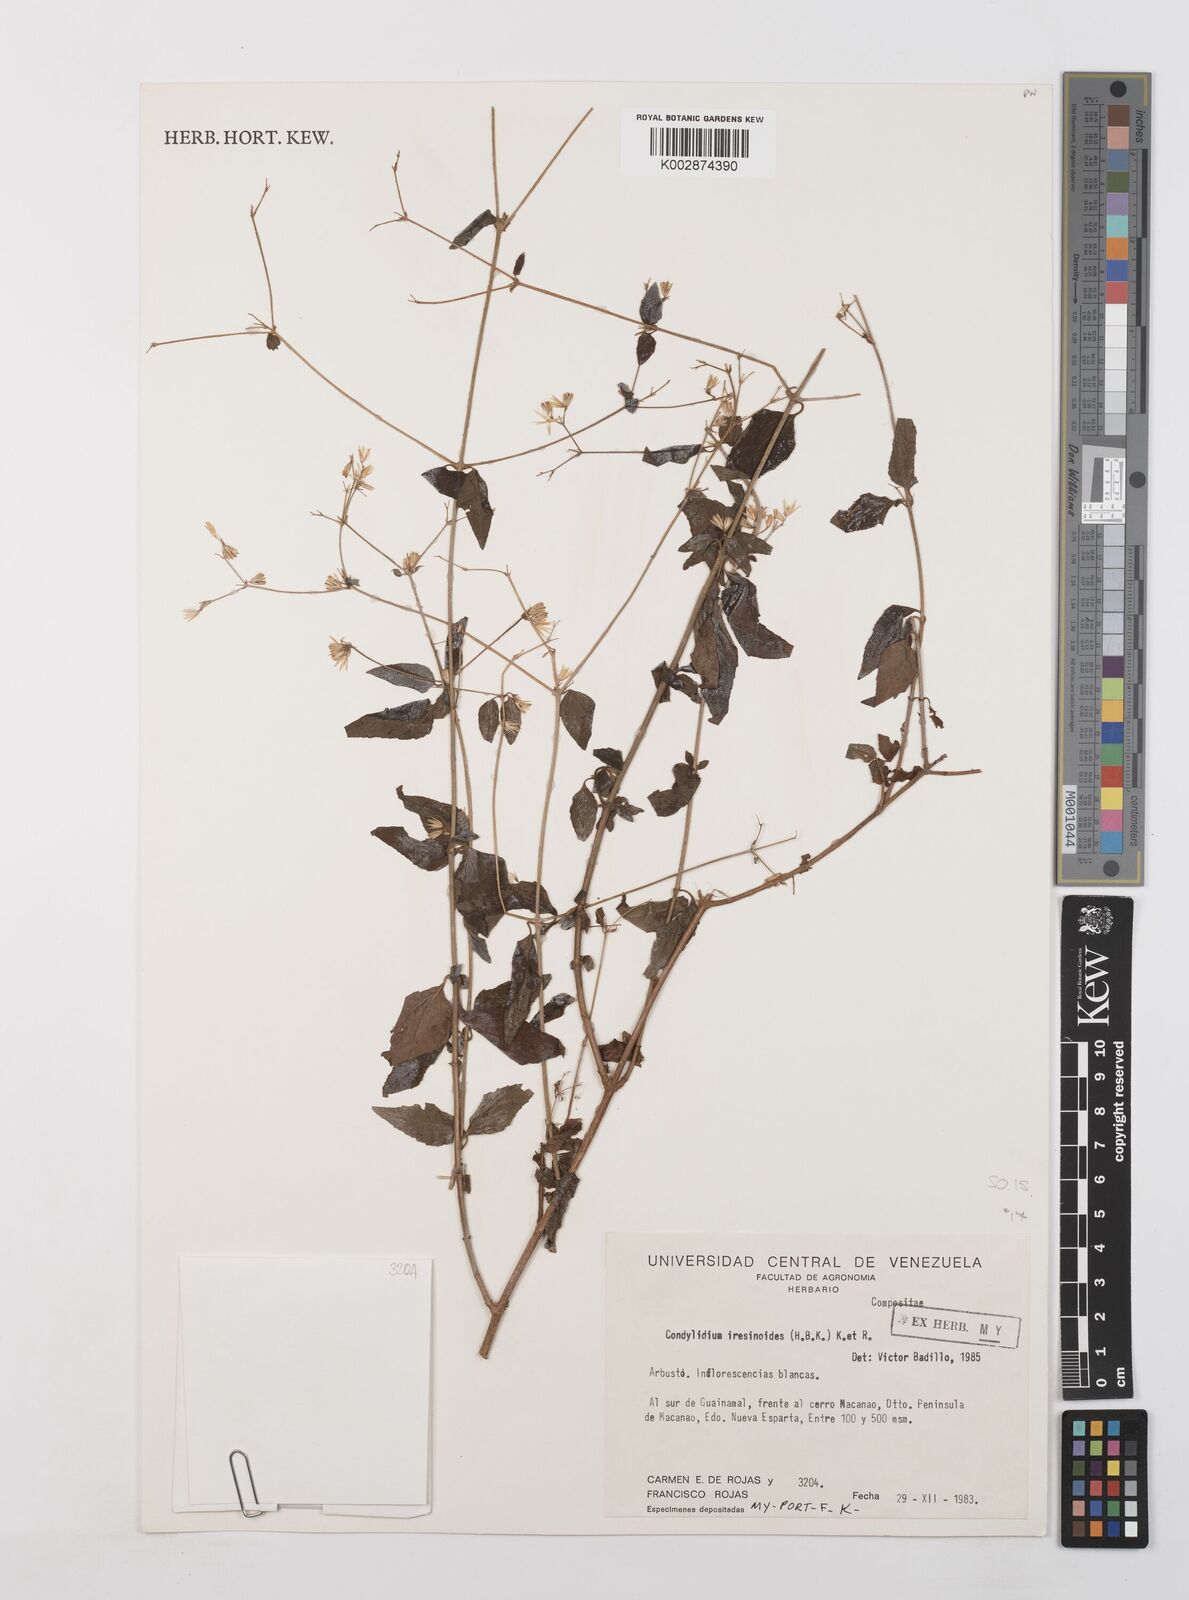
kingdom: Plantae
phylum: Tracheophyta
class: Magnoliopsida
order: Asterales
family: Asteraceae
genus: Condylidium
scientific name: Condylidium iresinoides
